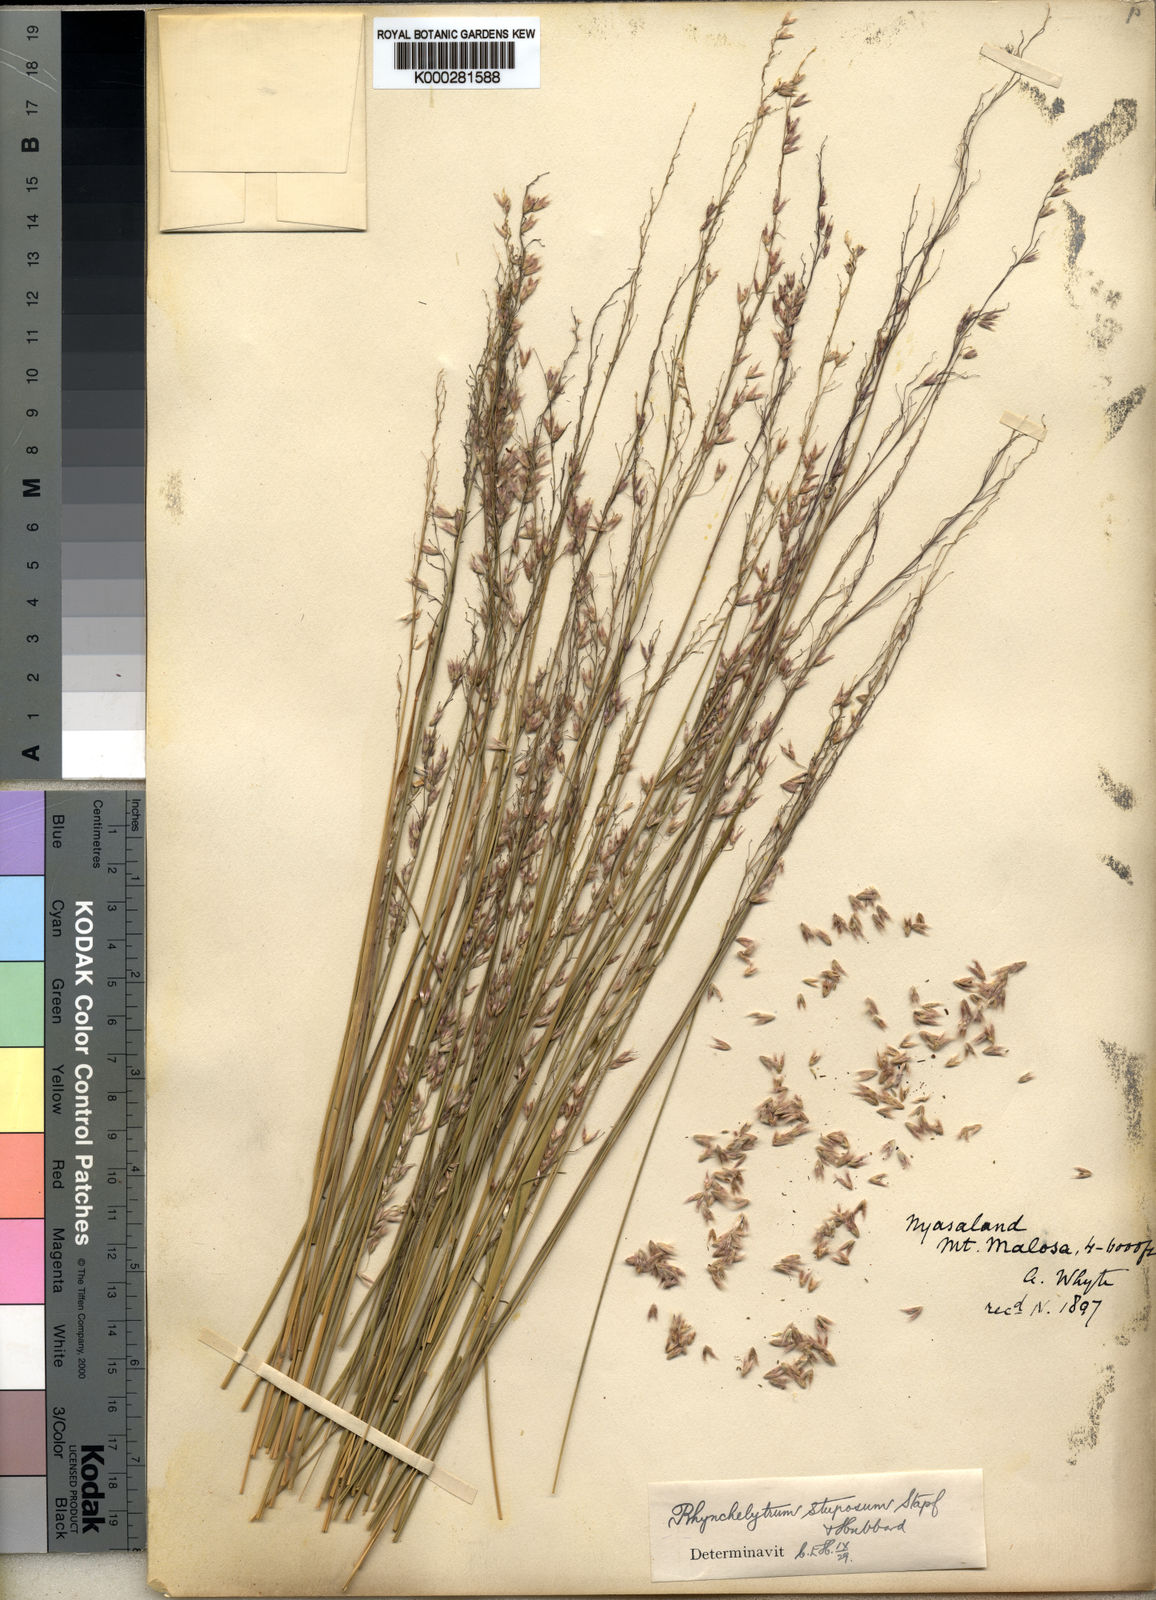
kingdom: Plantae
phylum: Tracheophyta
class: Liliopsida
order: Poales
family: Poaceae
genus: Melinis
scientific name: Melinis nerviglumis
